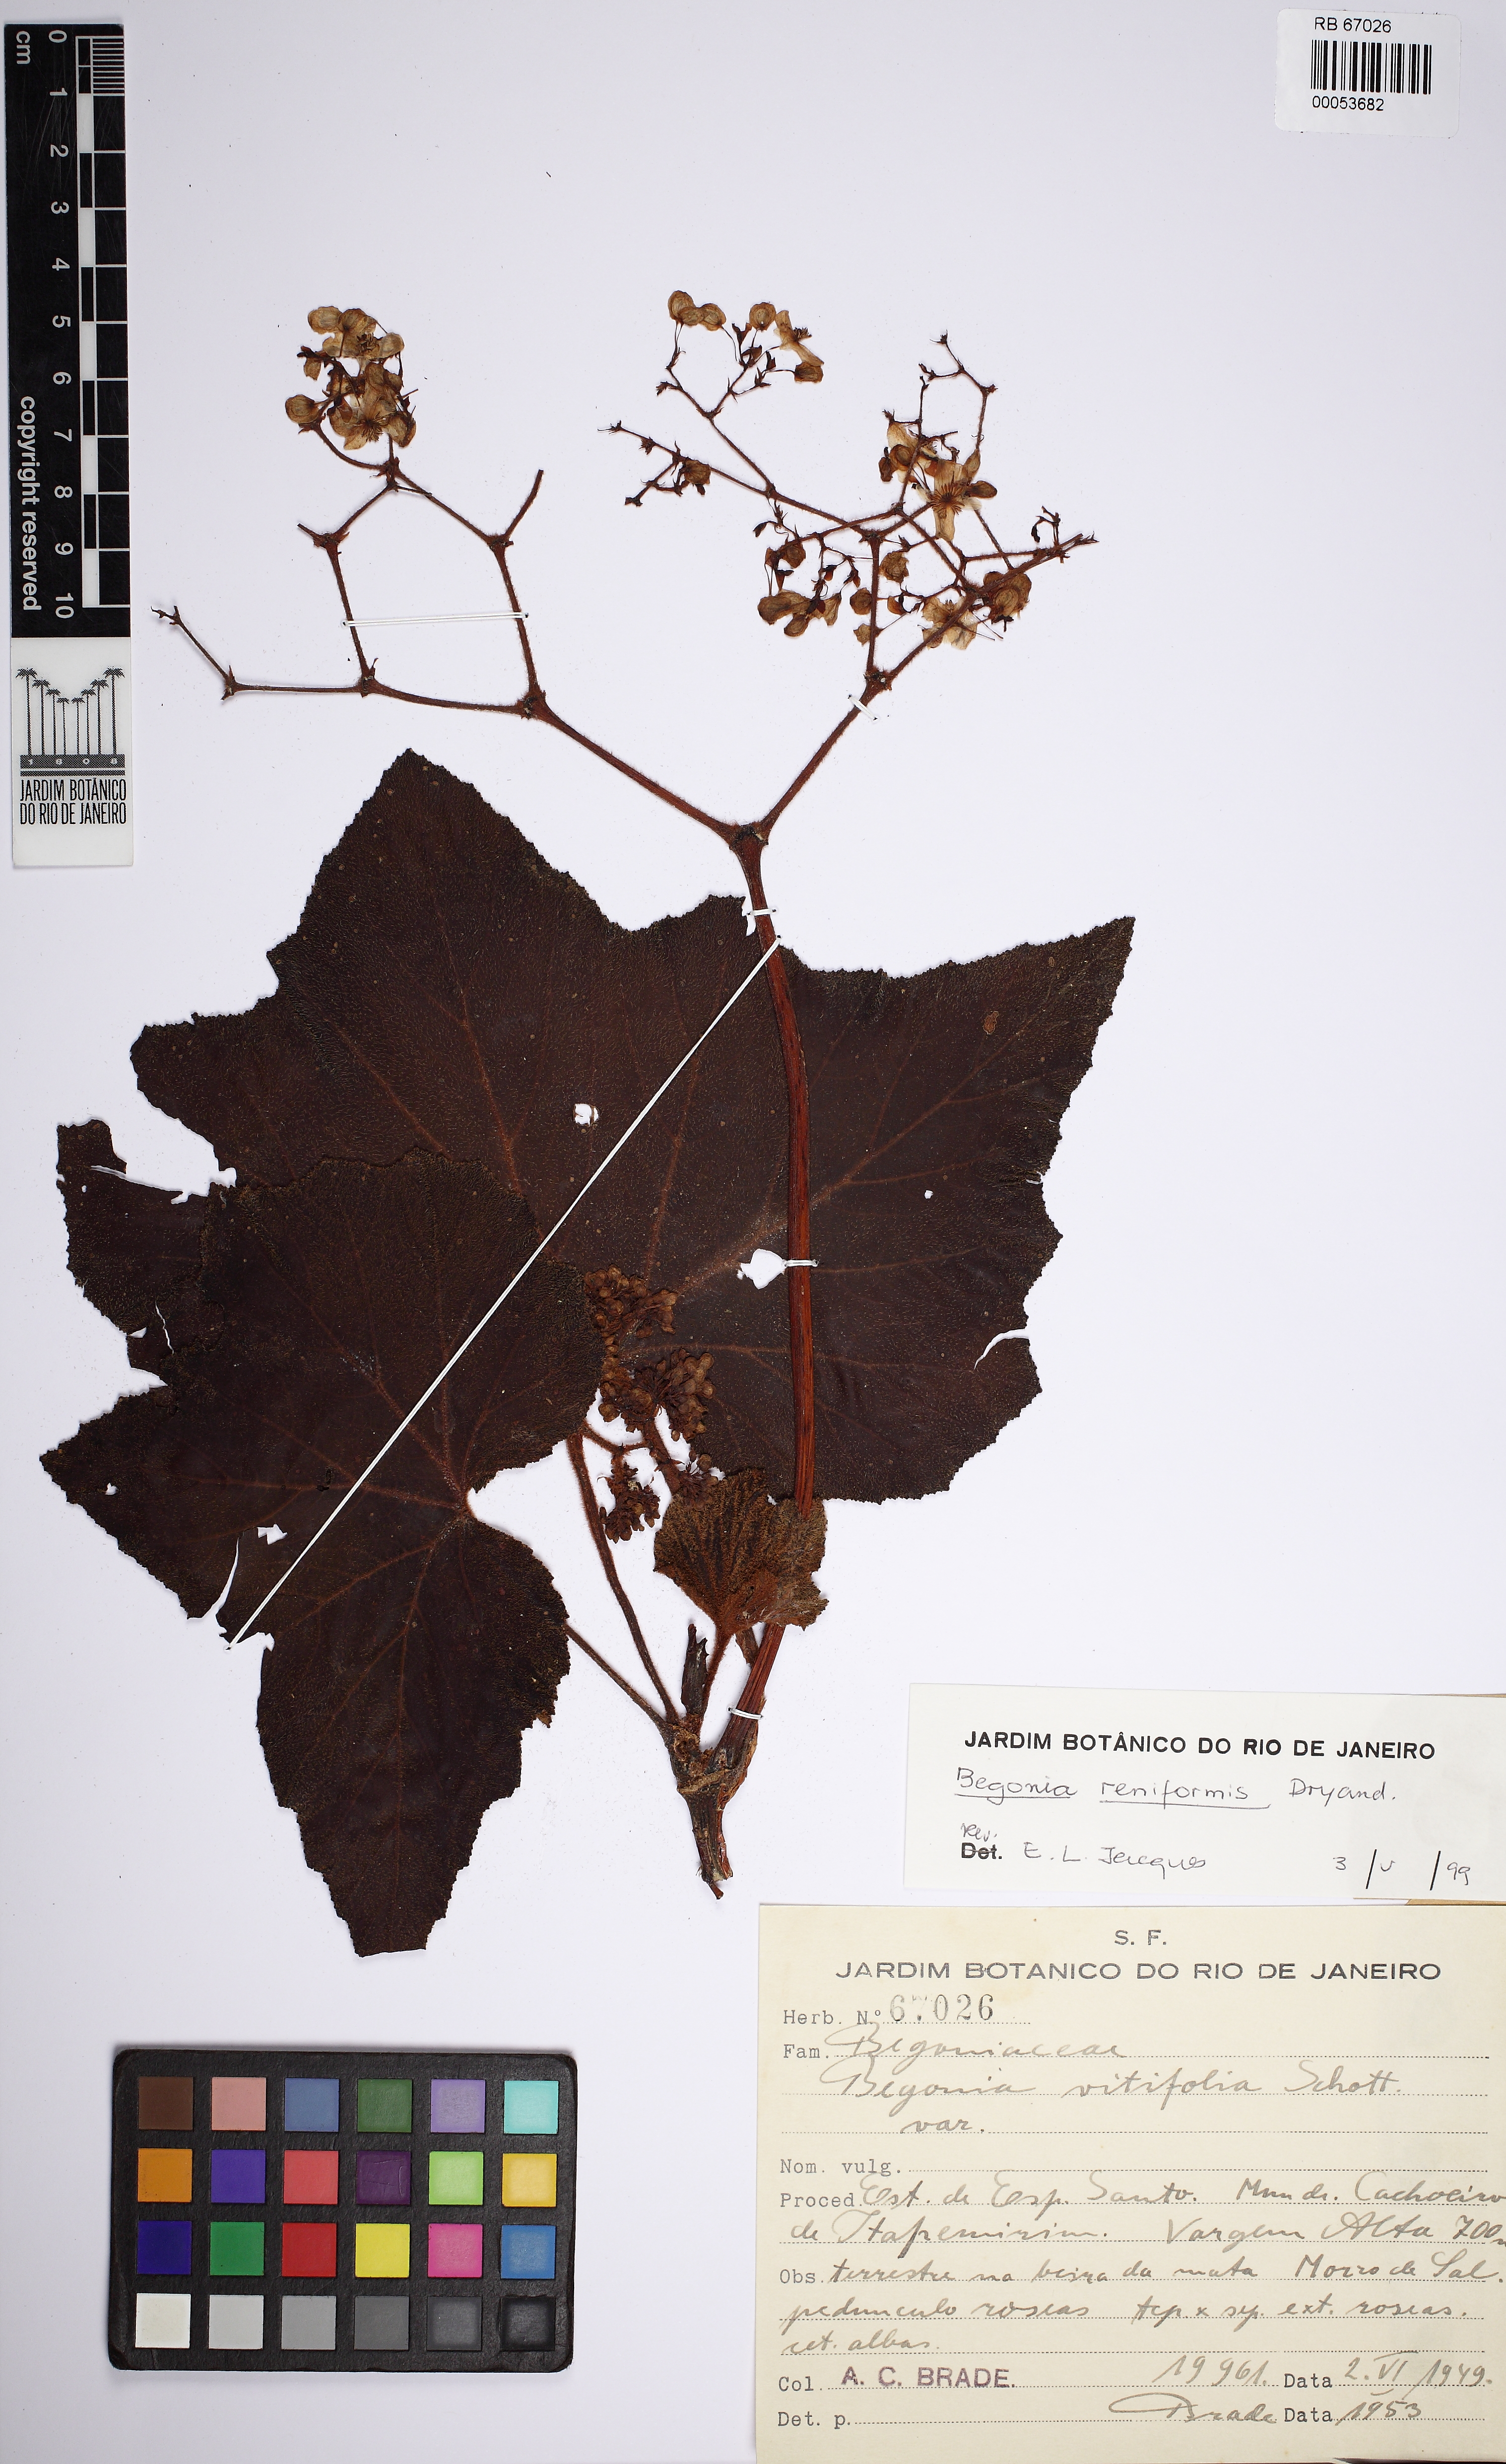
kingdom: Plantae
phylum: Tracheophyta
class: Magnoliopsida
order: Cucurbitales
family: Begoniaceae
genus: Begonia
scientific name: Begonia reniformis
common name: Grapeleaf begonia
